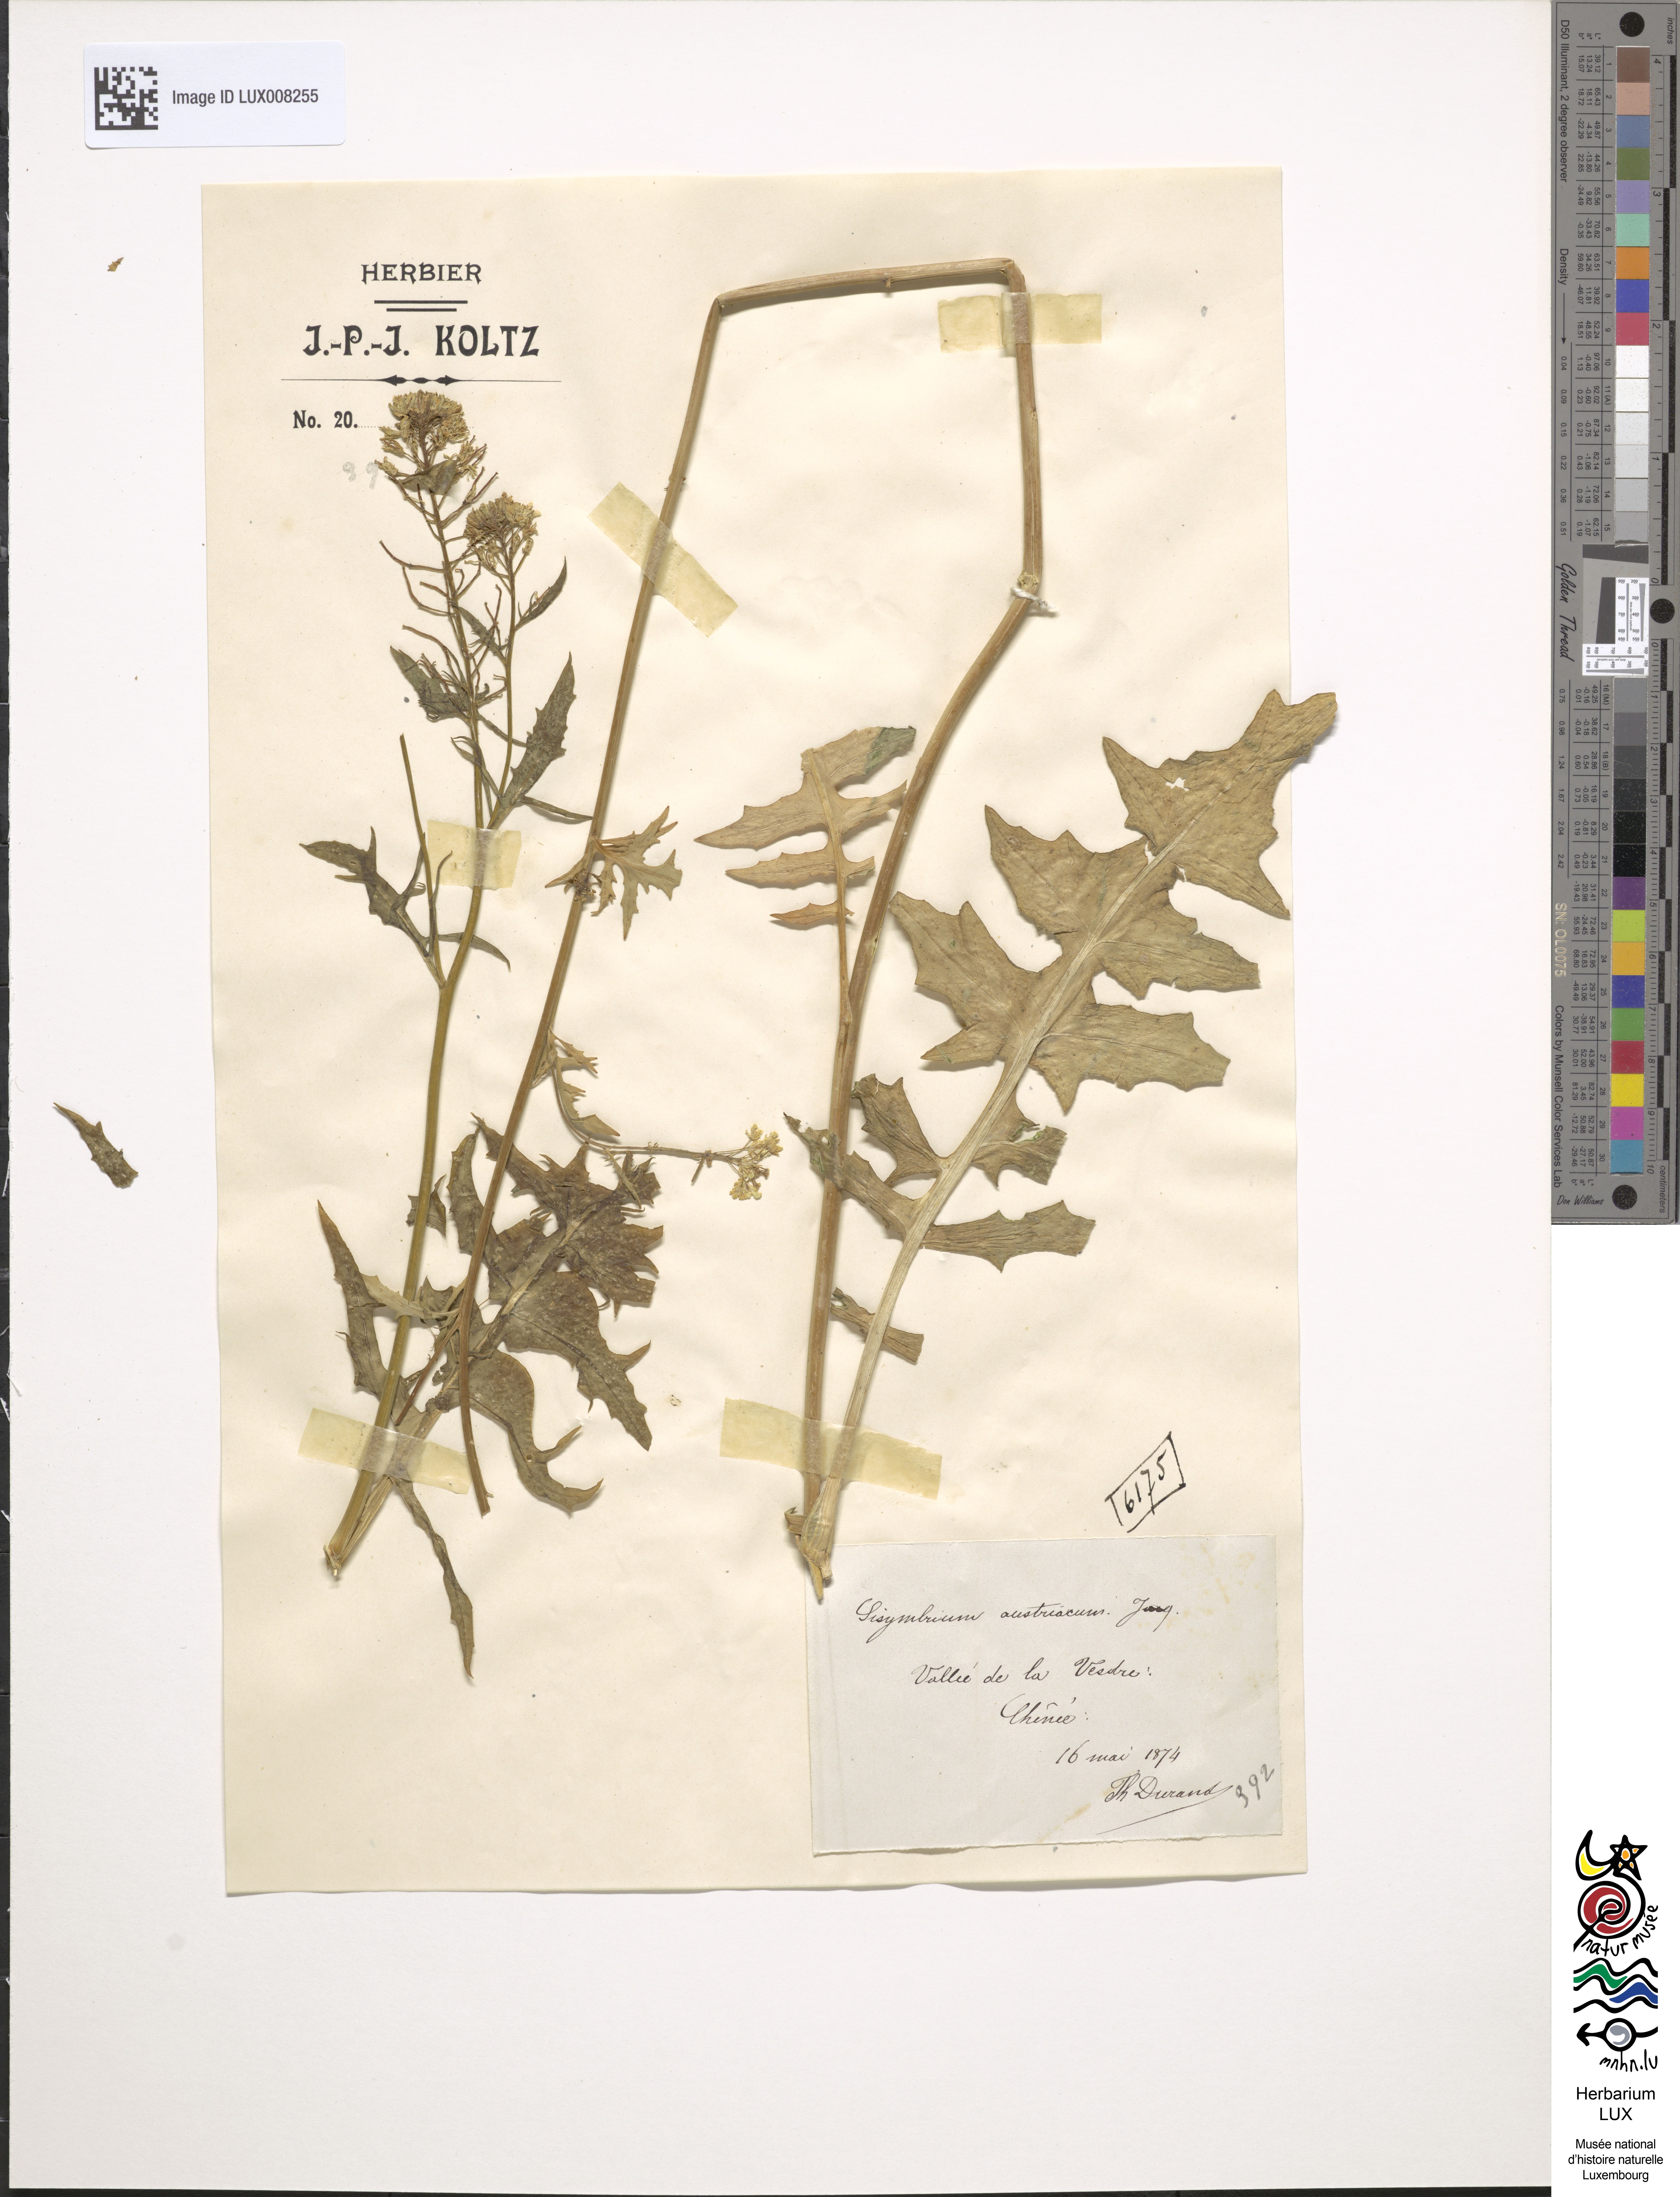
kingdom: Plantae
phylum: Tracheophyta
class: Magnoliopsida
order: Brassicales
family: Brassicaceae
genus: Sisymbrium
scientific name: Sisymbrium austriacum
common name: Jeweled rocket
